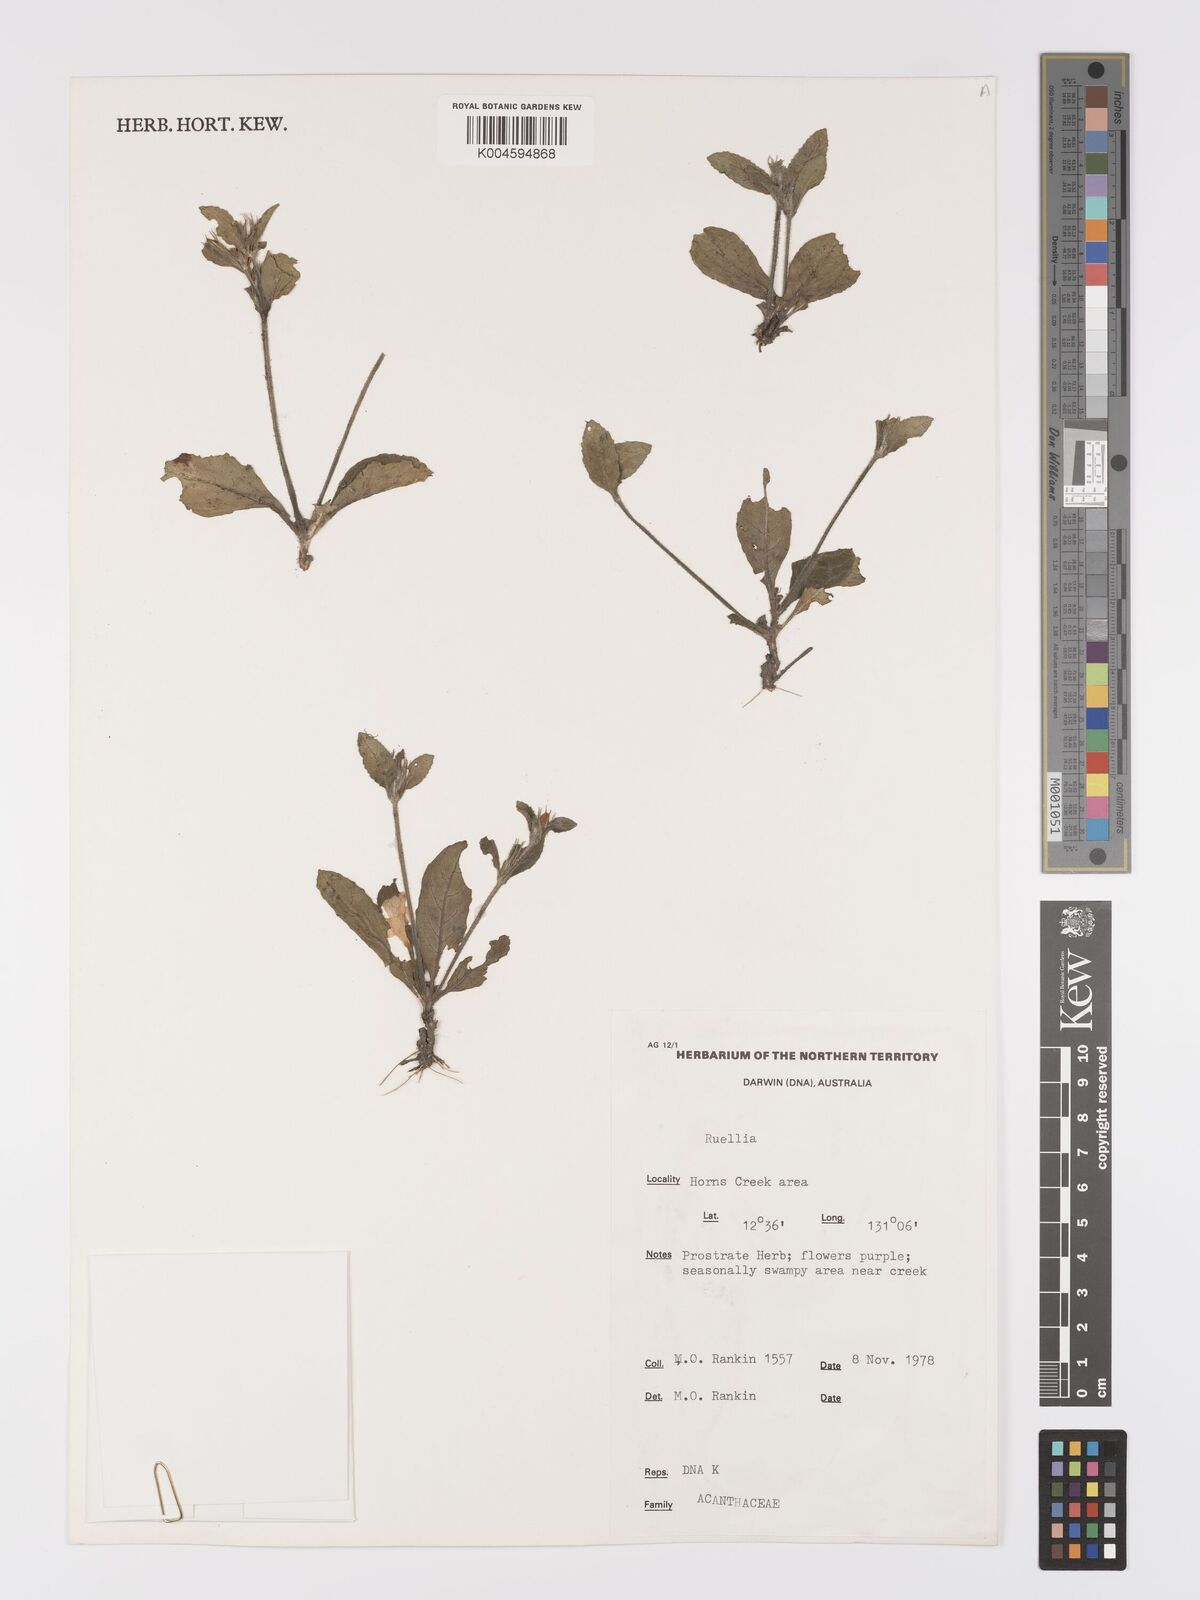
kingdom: Plantae
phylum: Tracheophyta
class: Magnoliopsida
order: Lamiales
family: Acanthaceae
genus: Brunoniella
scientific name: Brunoniella
